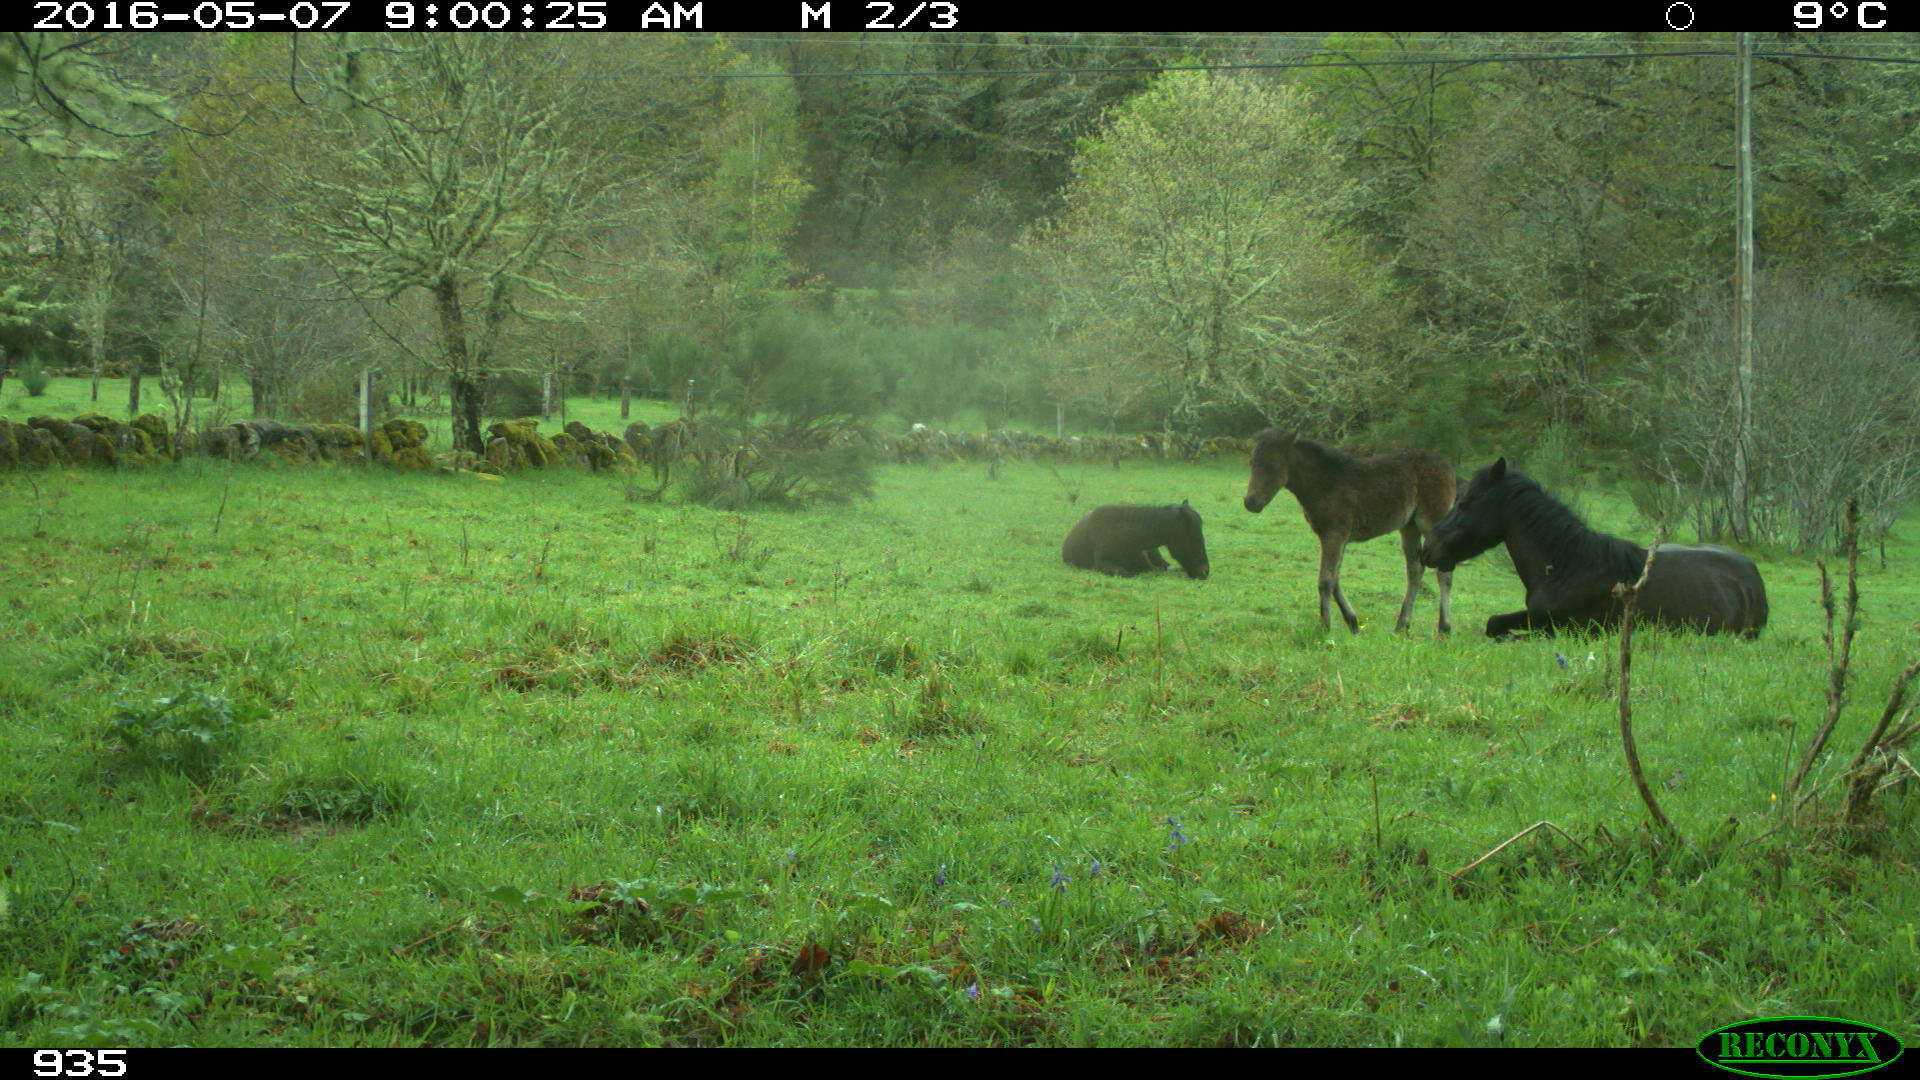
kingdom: Animalia
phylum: Chordata
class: Mammalia
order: Perissodactyla
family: Equidae
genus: Equus
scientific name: Equus caballus
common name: Horse
